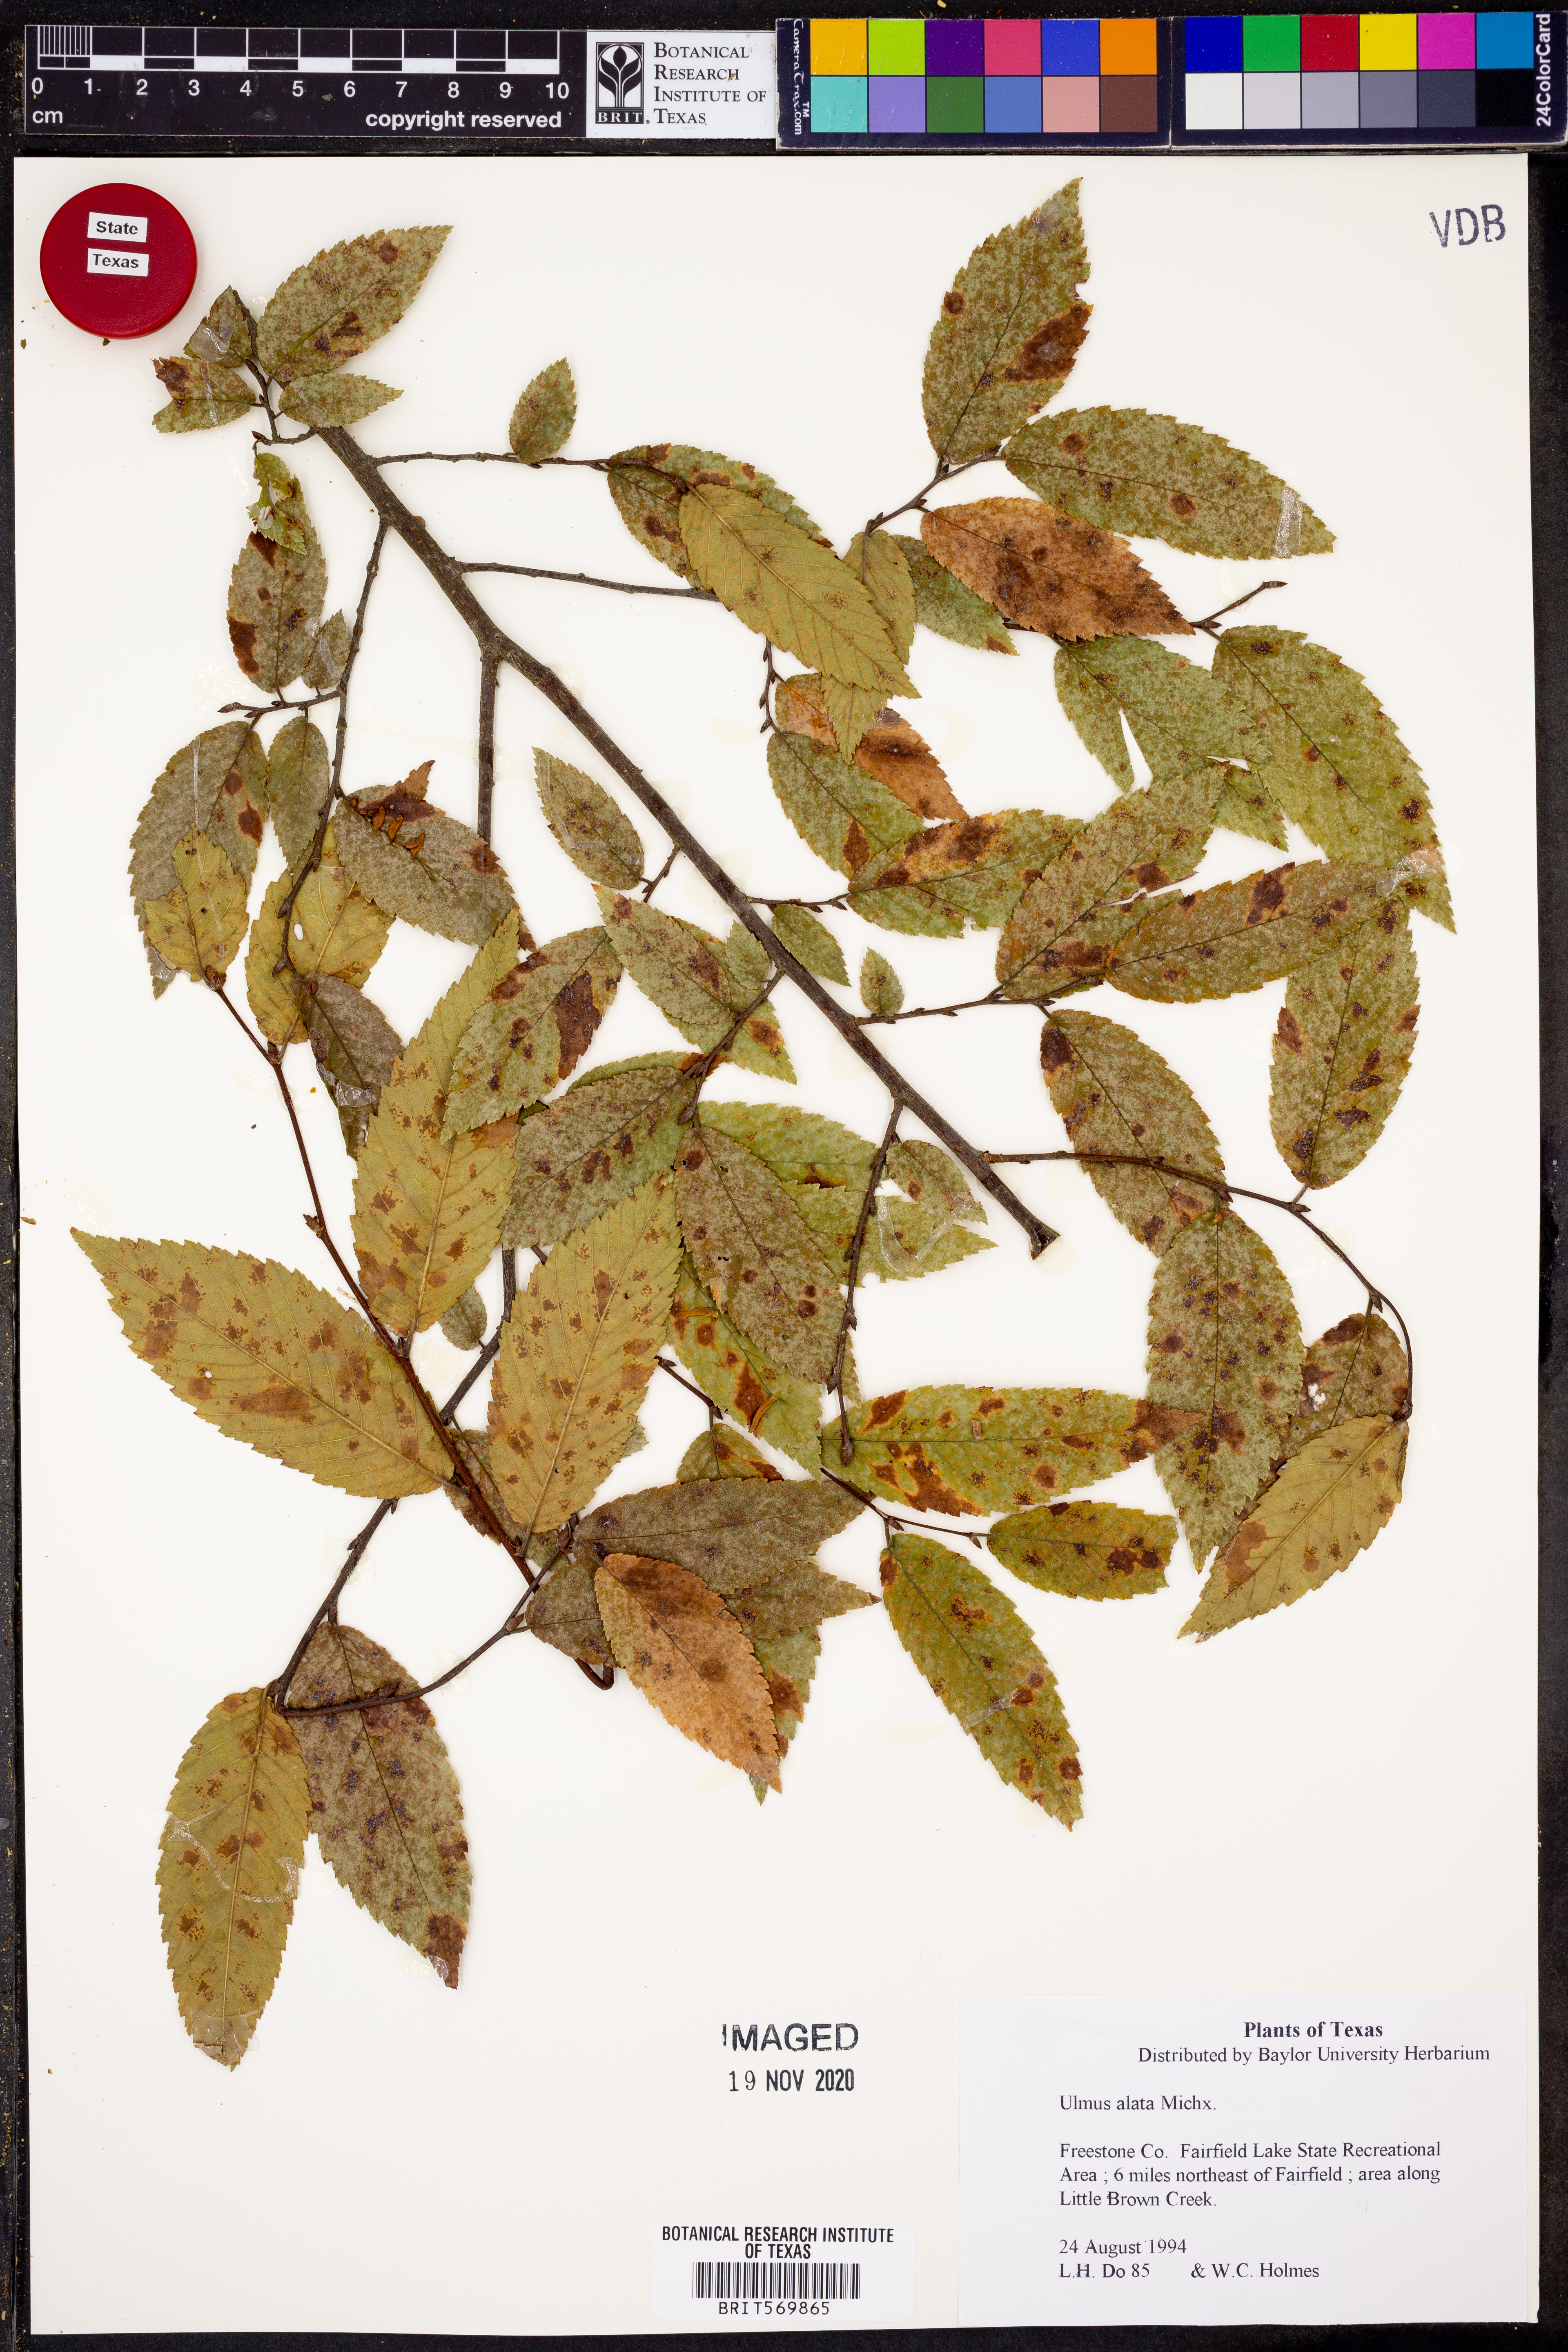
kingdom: Plantae
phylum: Tracheophyta
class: Magnoliopsida
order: Rosales
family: Ulmaceae
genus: Ulmus
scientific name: Ulmus alata
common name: Winged elm
